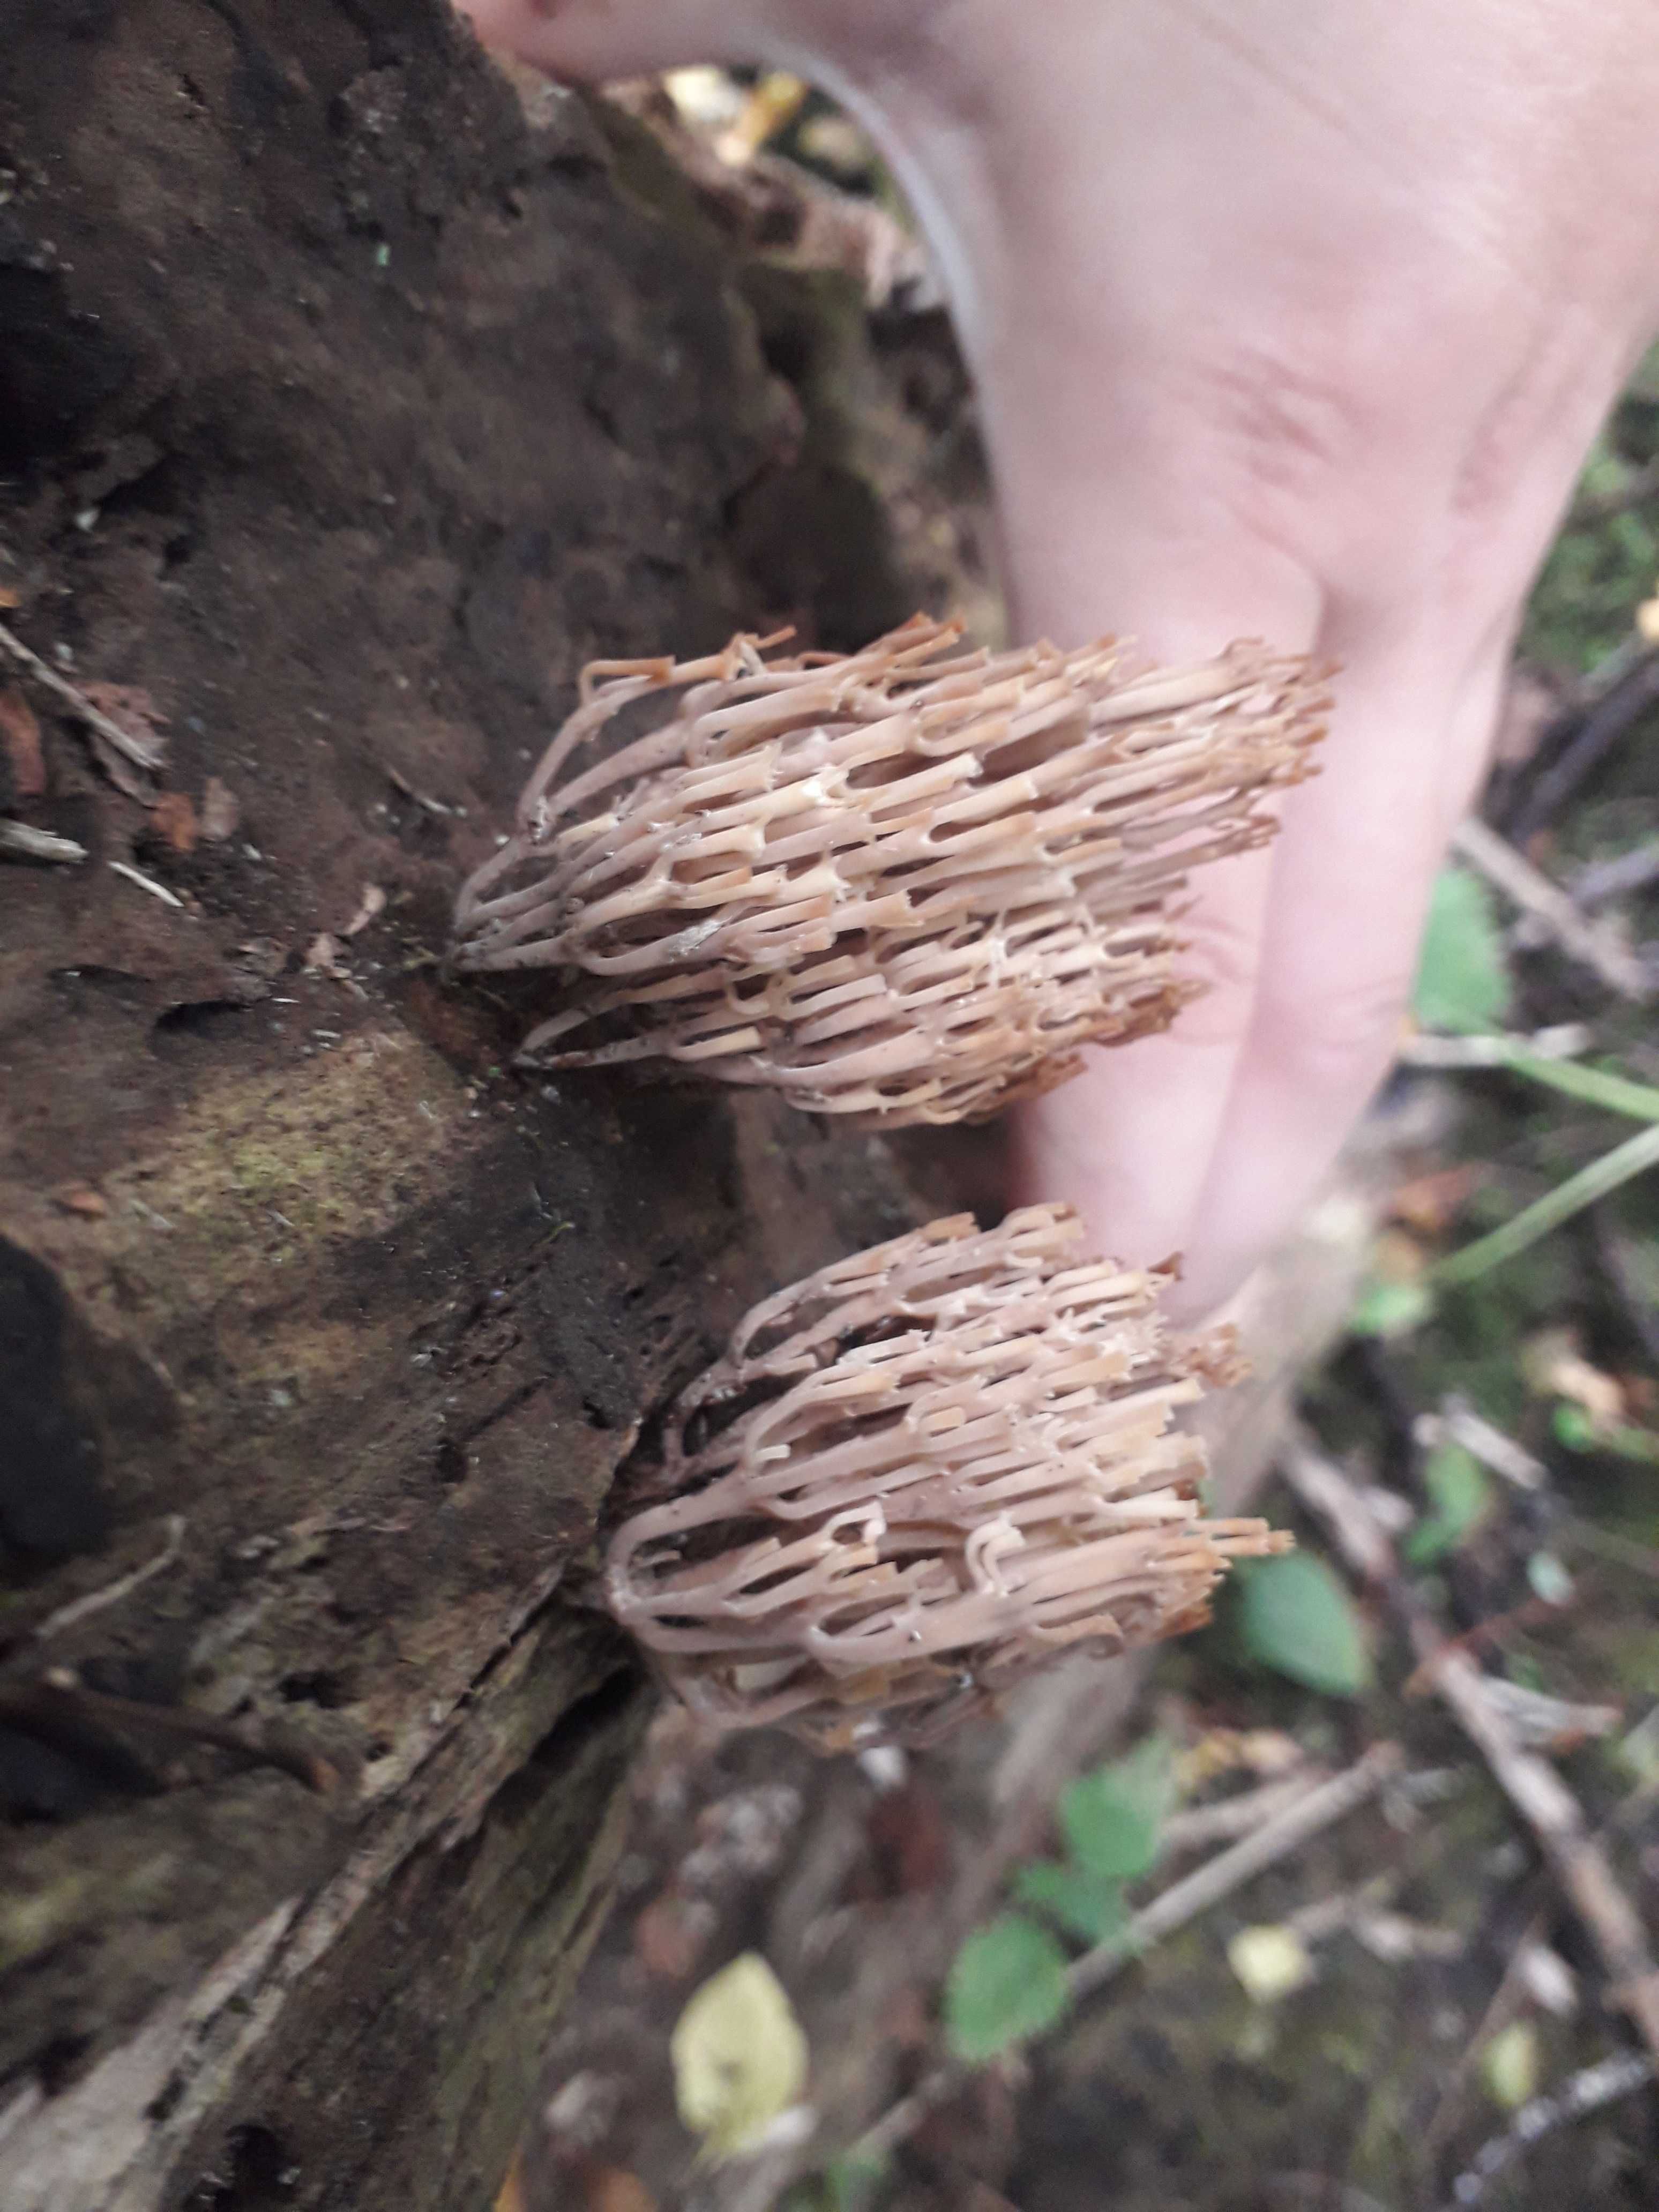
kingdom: Fungi
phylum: Basidiomycota
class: Agaricomycetes
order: Gomphales
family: Gomphaceae
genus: Ramaria
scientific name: Ramaria stricta
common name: rank koralsvamp
